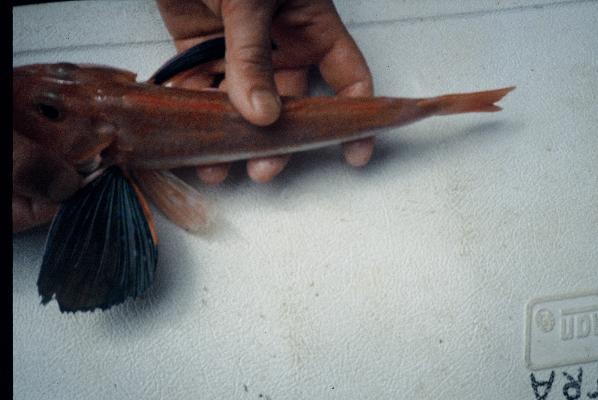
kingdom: Animalia
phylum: Chordata
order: Scorpaeniformes
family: Triglidae
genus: Chelidonichthys
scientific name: Chelidonichthys kumu
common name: Bluefin gurnard
